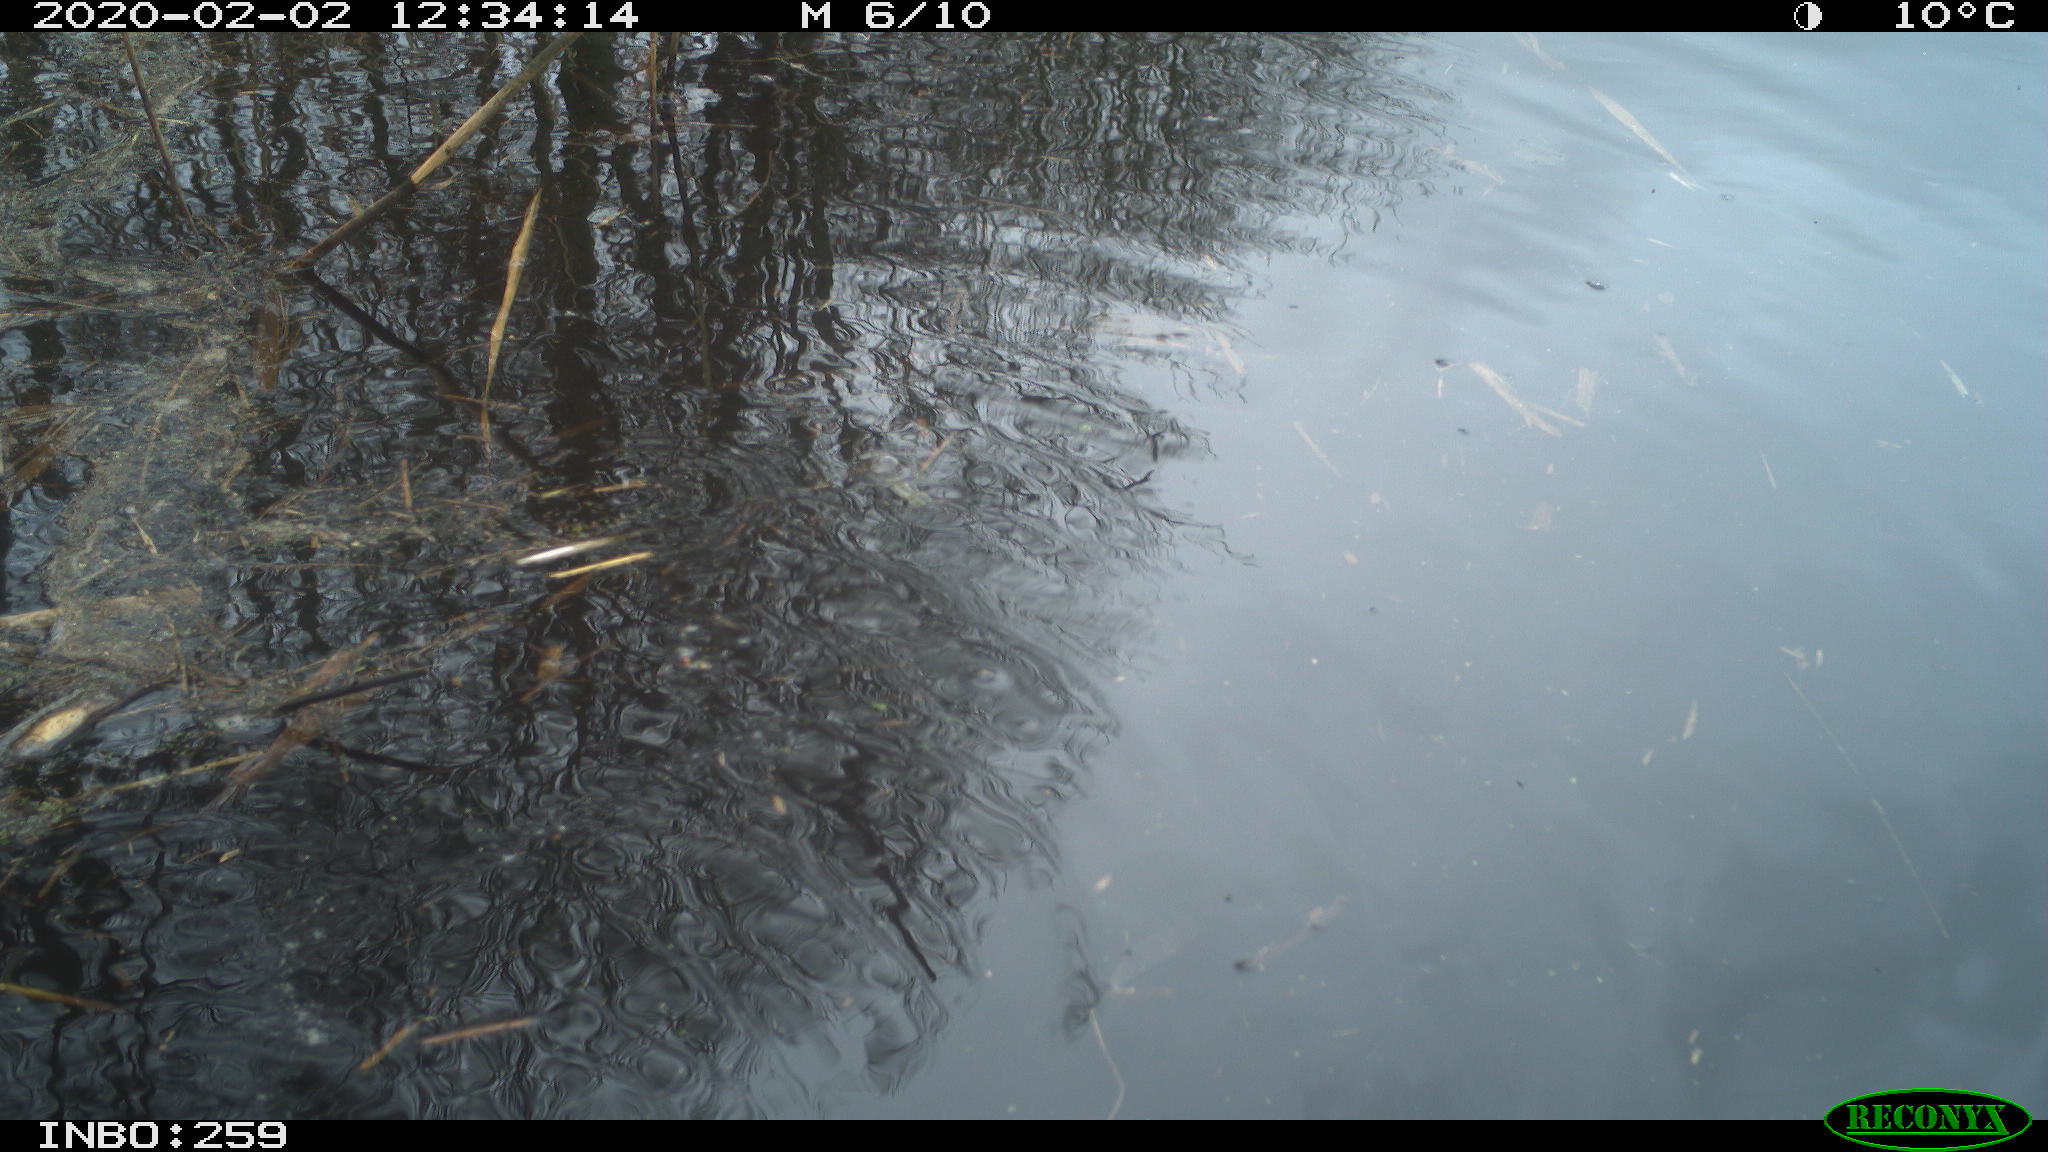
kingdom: Animalia
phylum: Chordata
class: Aves
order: Gruiformes
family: Rallidae
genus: Gallinula
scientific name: Gallinula chloropus
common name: Common moorhen
